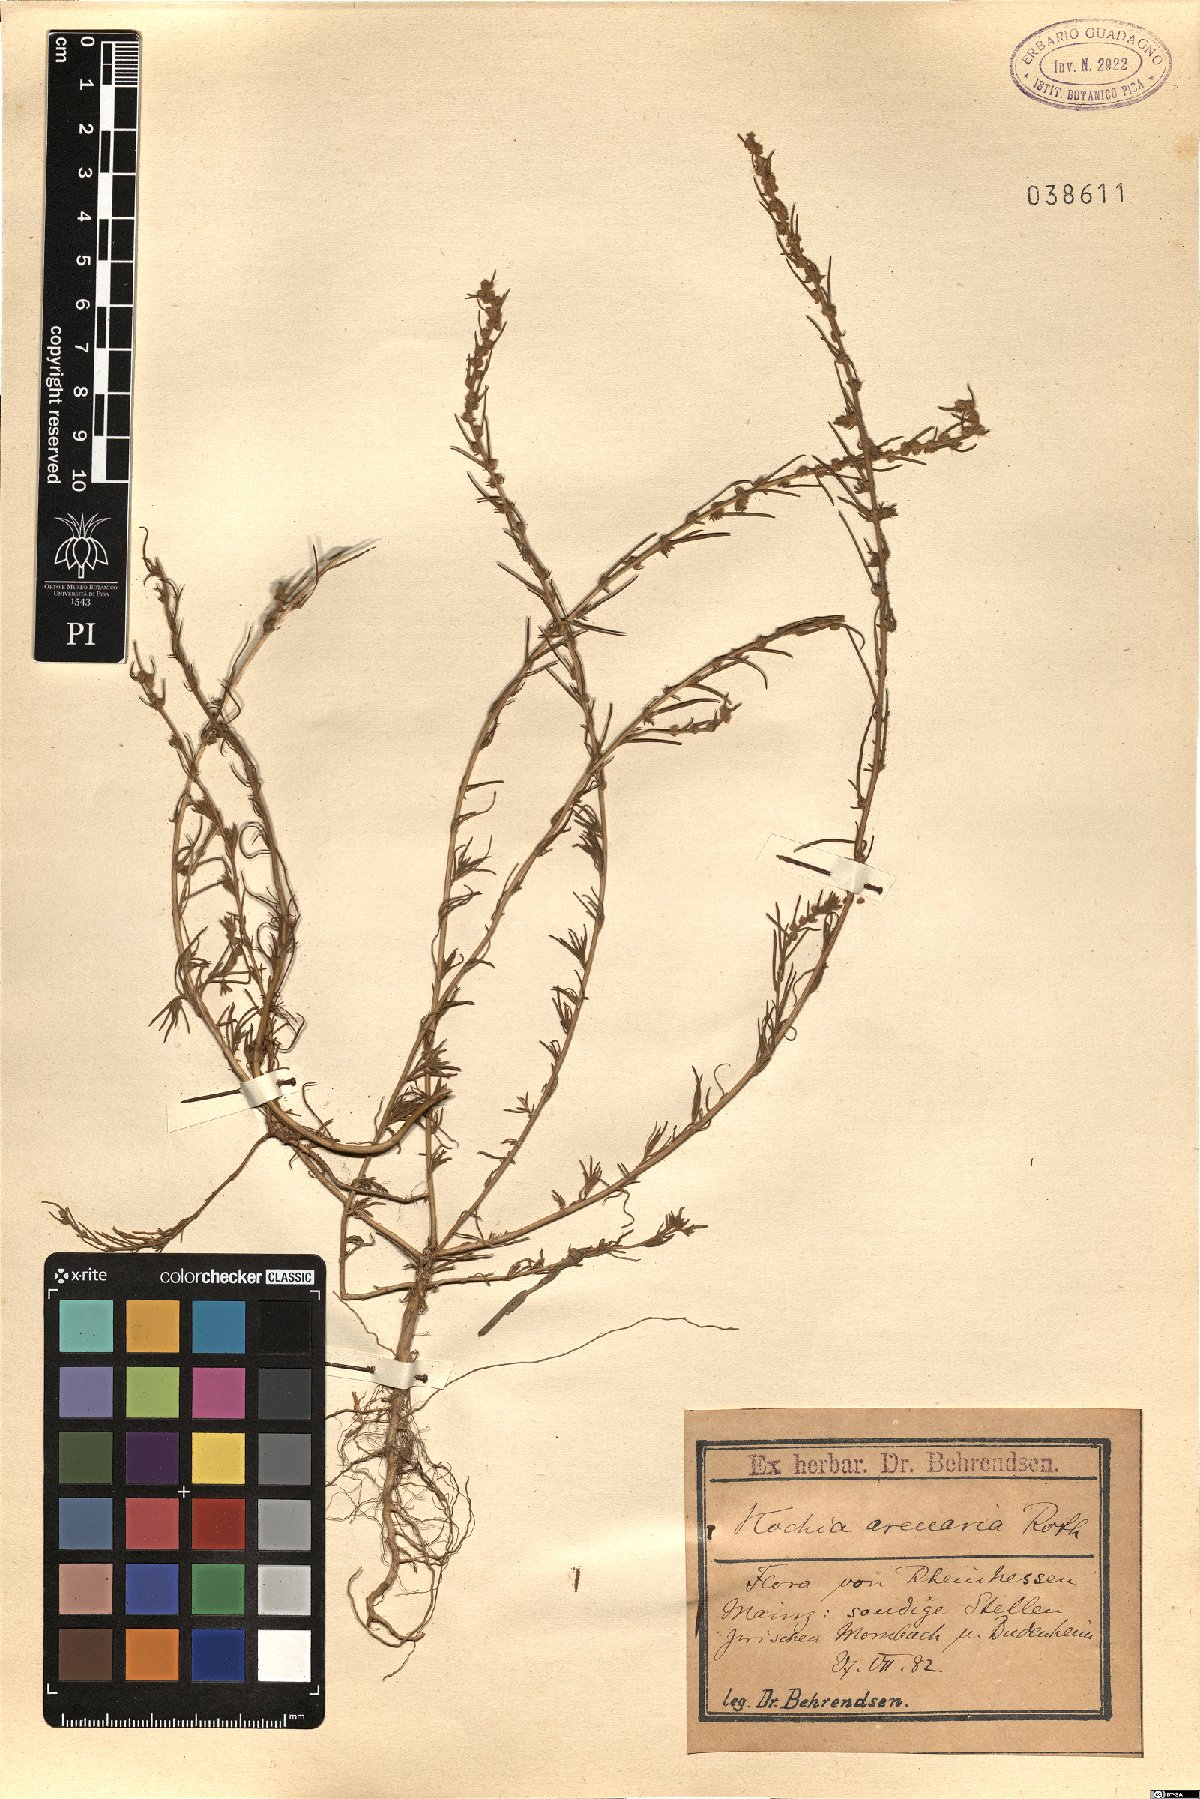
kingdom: Plantae
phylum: Tracheophyta
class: Magnoliopsida
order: Caryophyllales
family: Amaranthaceae
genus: Bassia
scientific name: Bassia Kochia arenaria
